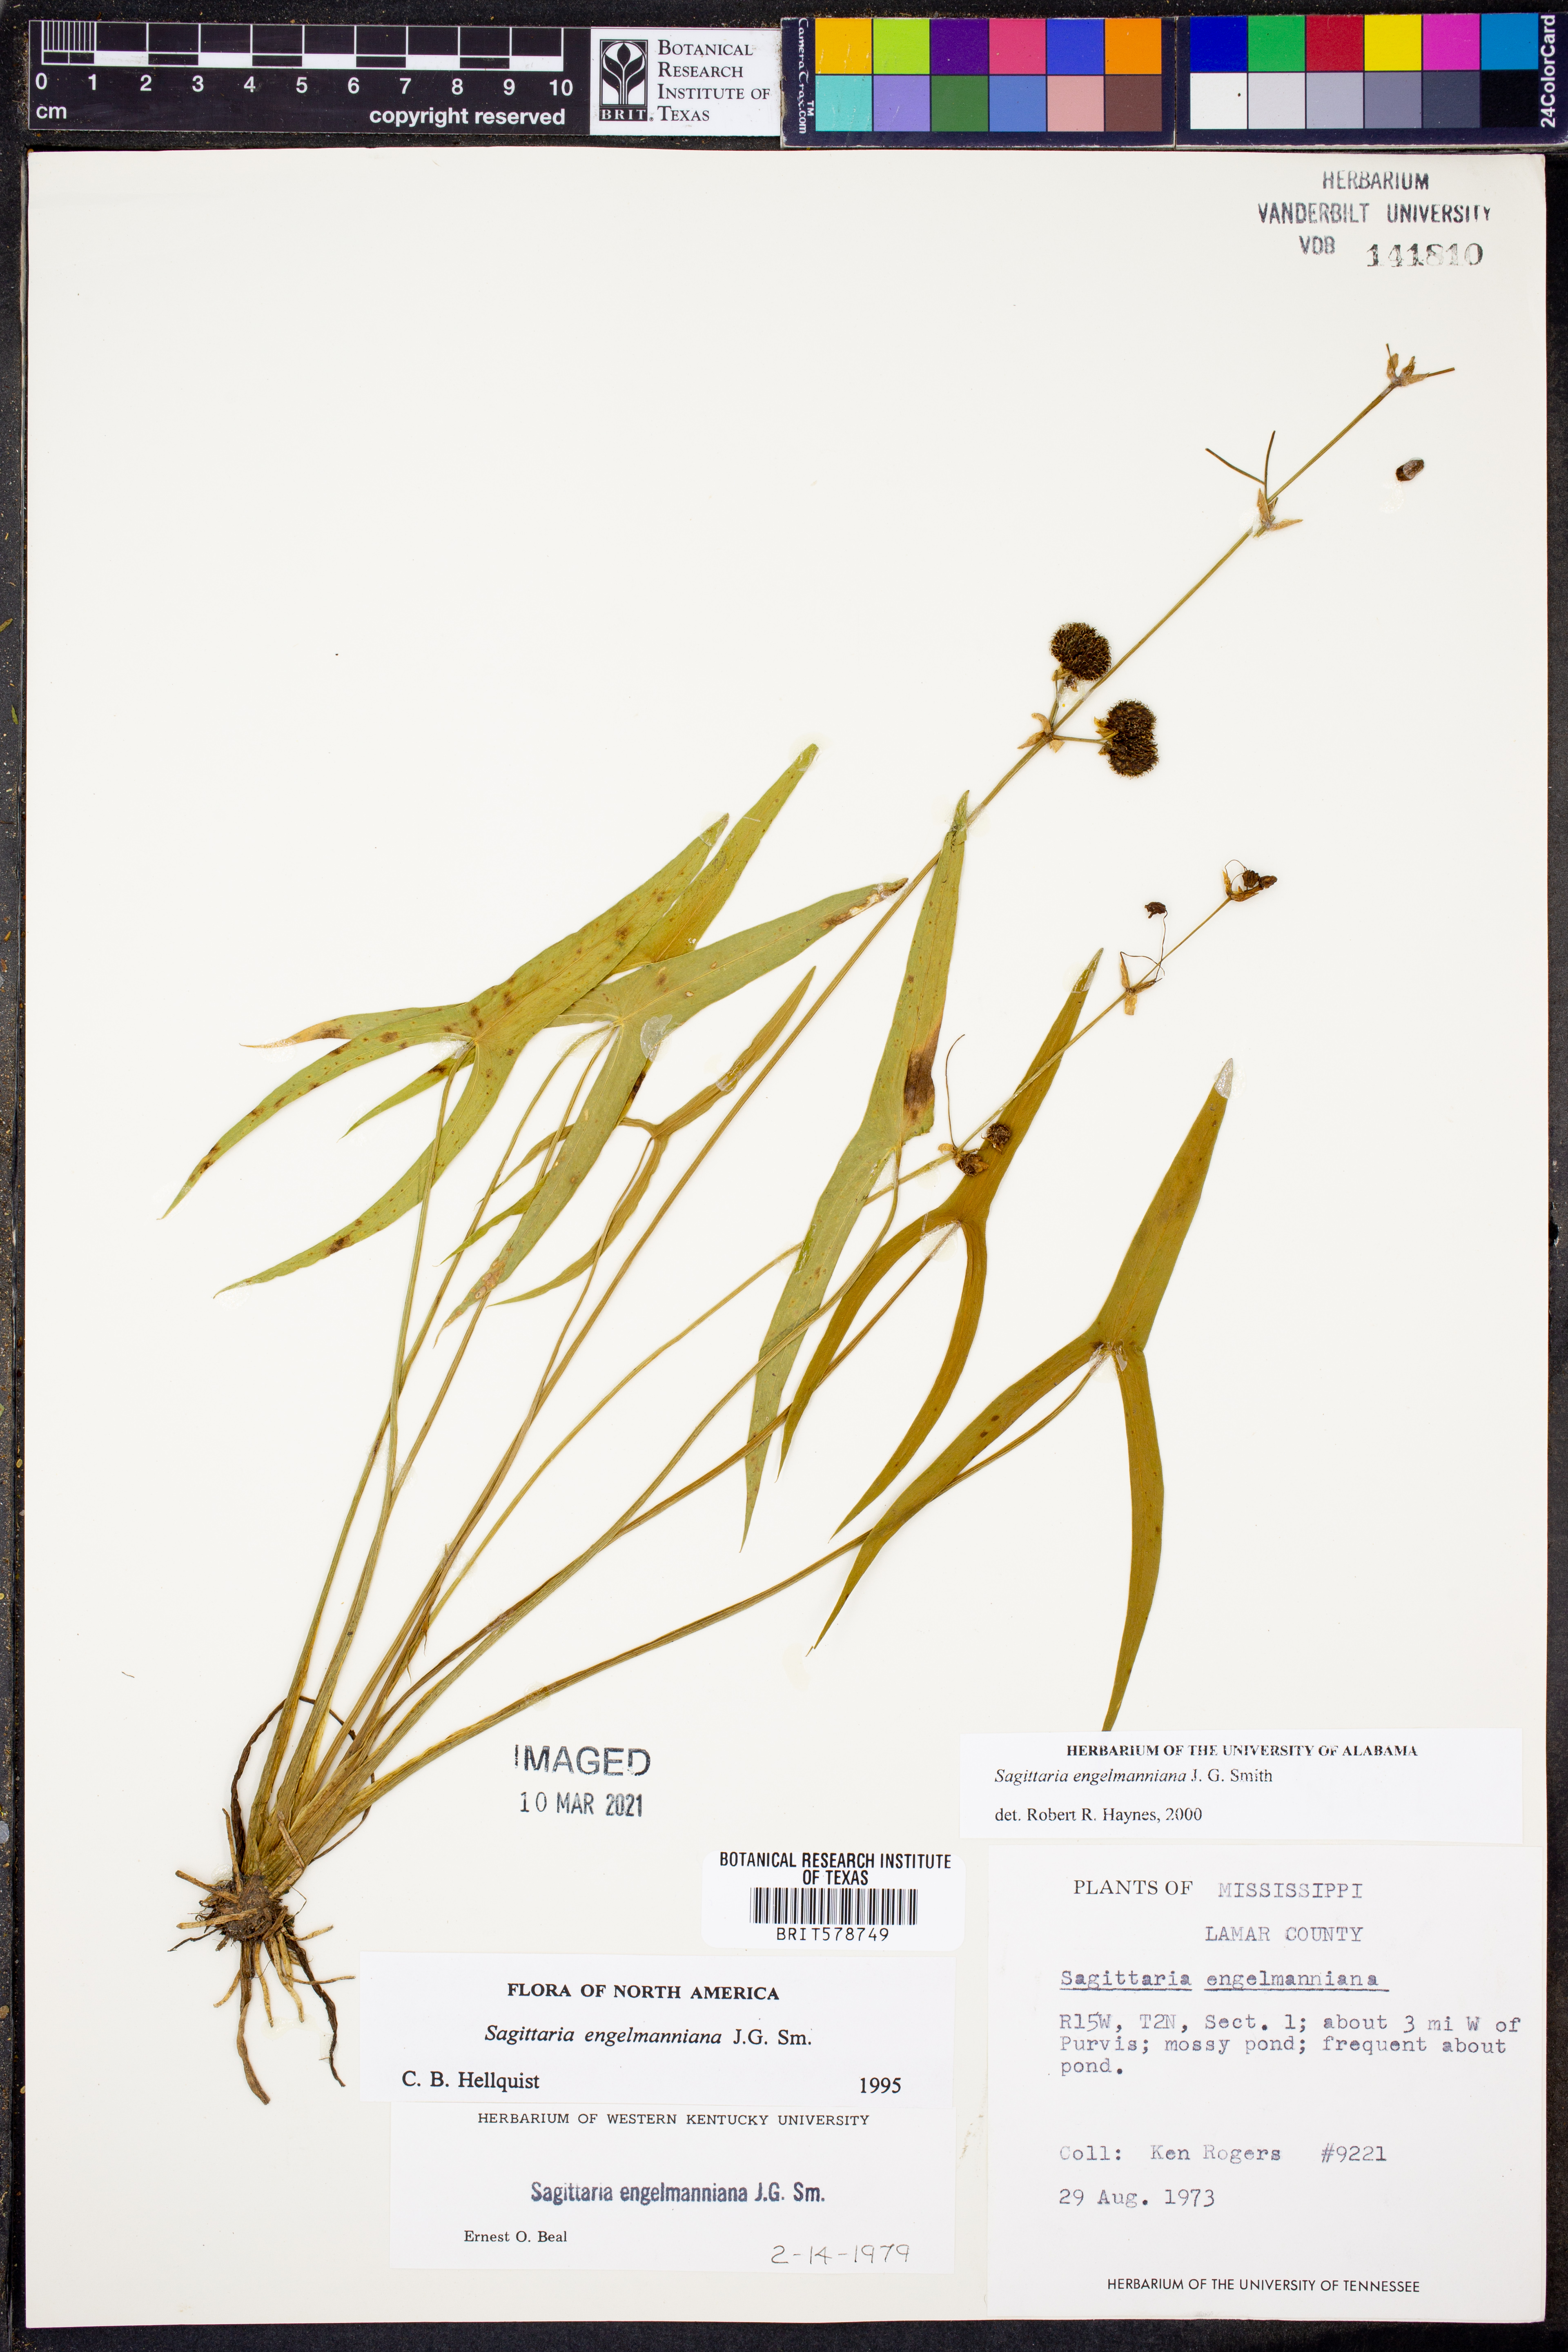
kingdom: Plantae
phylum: Tracheophyta
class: Liliopsida
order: Alismatales
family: Alismataceae
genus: Sagittaria
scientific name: Sagittaria engelmanniana
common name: Acid-water arrowhead
